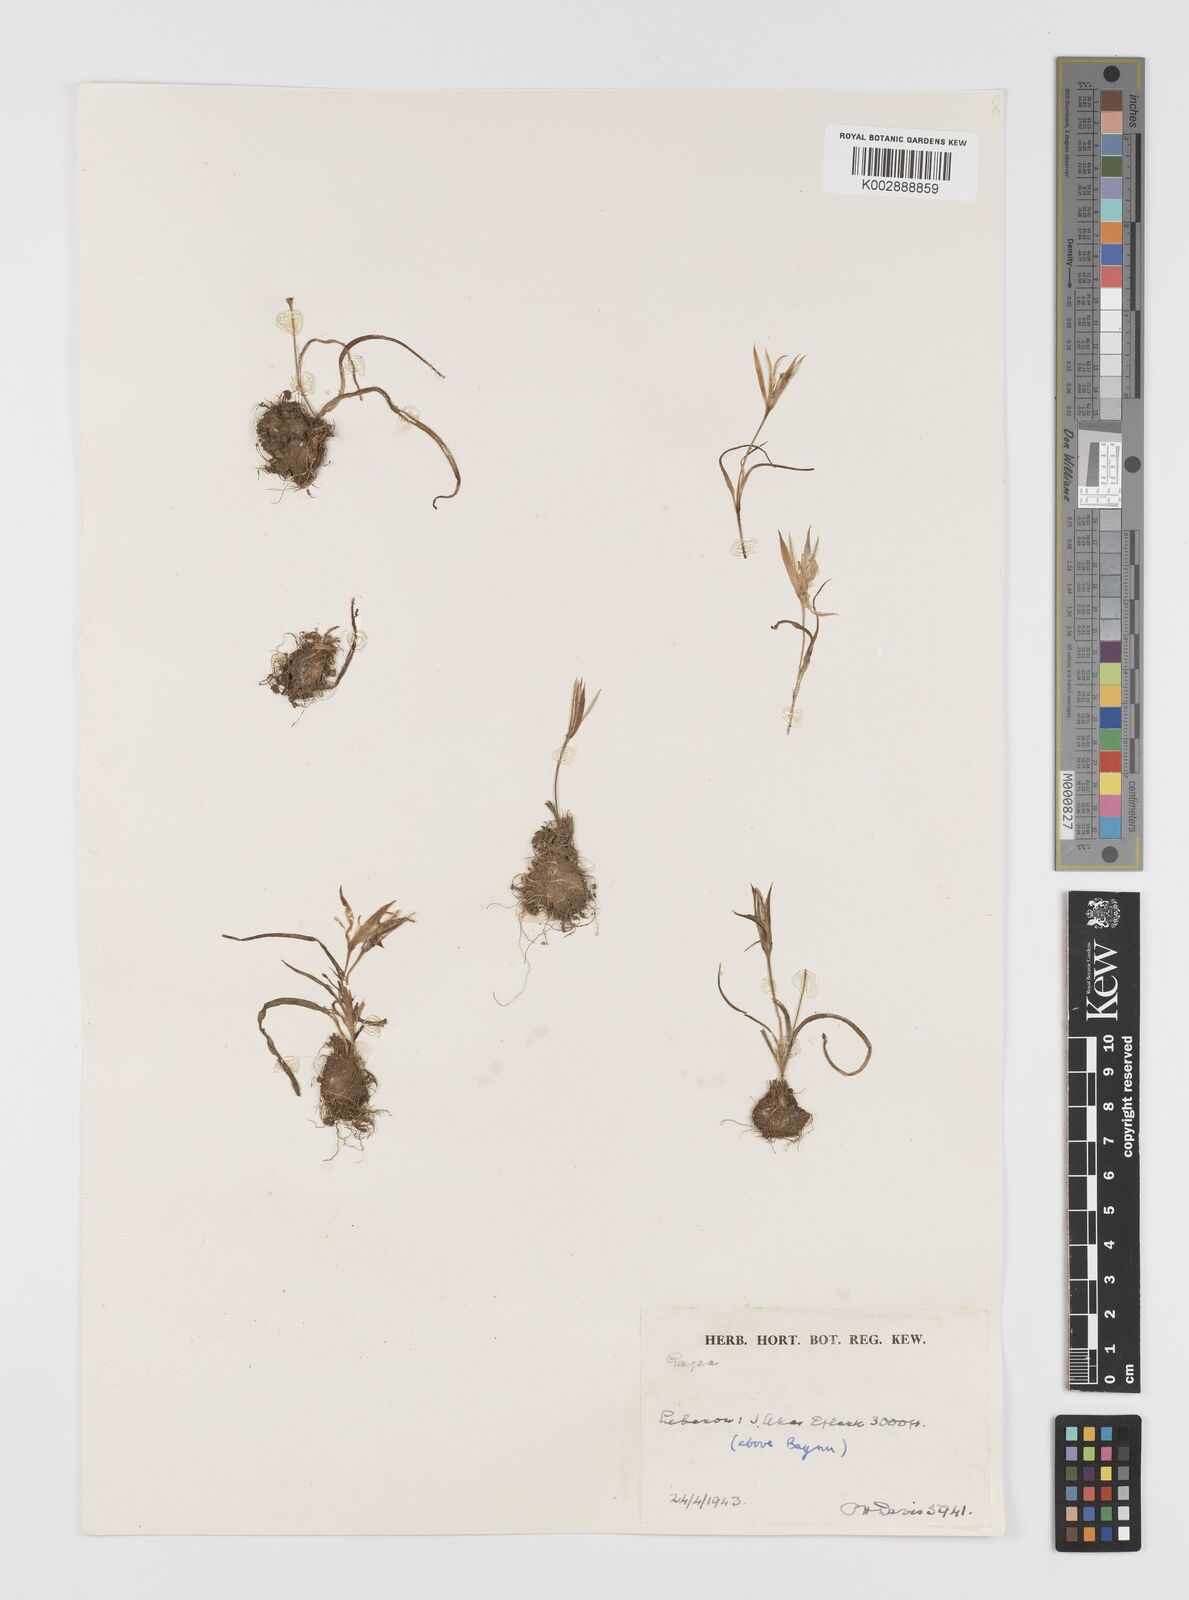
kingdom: Plantae
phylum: Tracheophyta
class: Liliopsida
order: Liliales
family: Liliaceae
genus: Gagea
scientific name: Gagea
